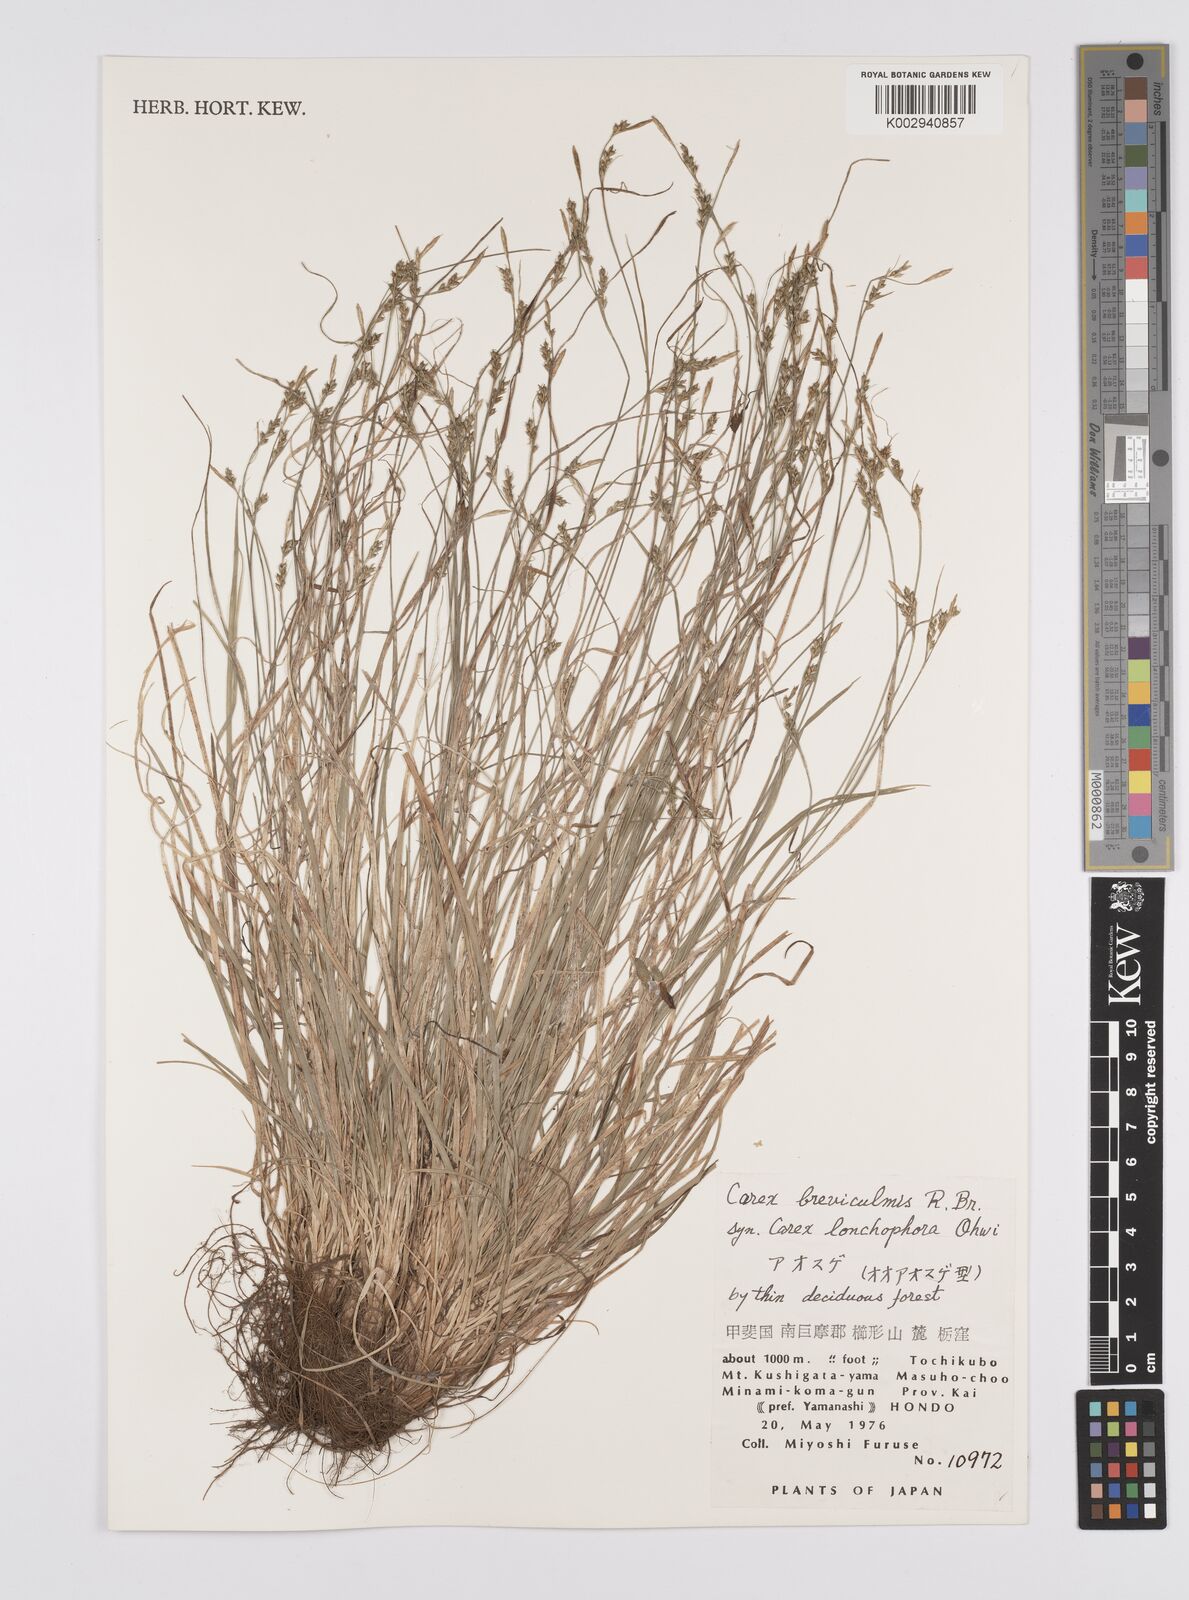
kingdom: Plantae
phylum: Tracheophyta
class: Liliopsida
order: Poales
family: Cyperaceae
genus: Carex
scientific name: Carex breviculmis
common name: Asian shortstem sedge
